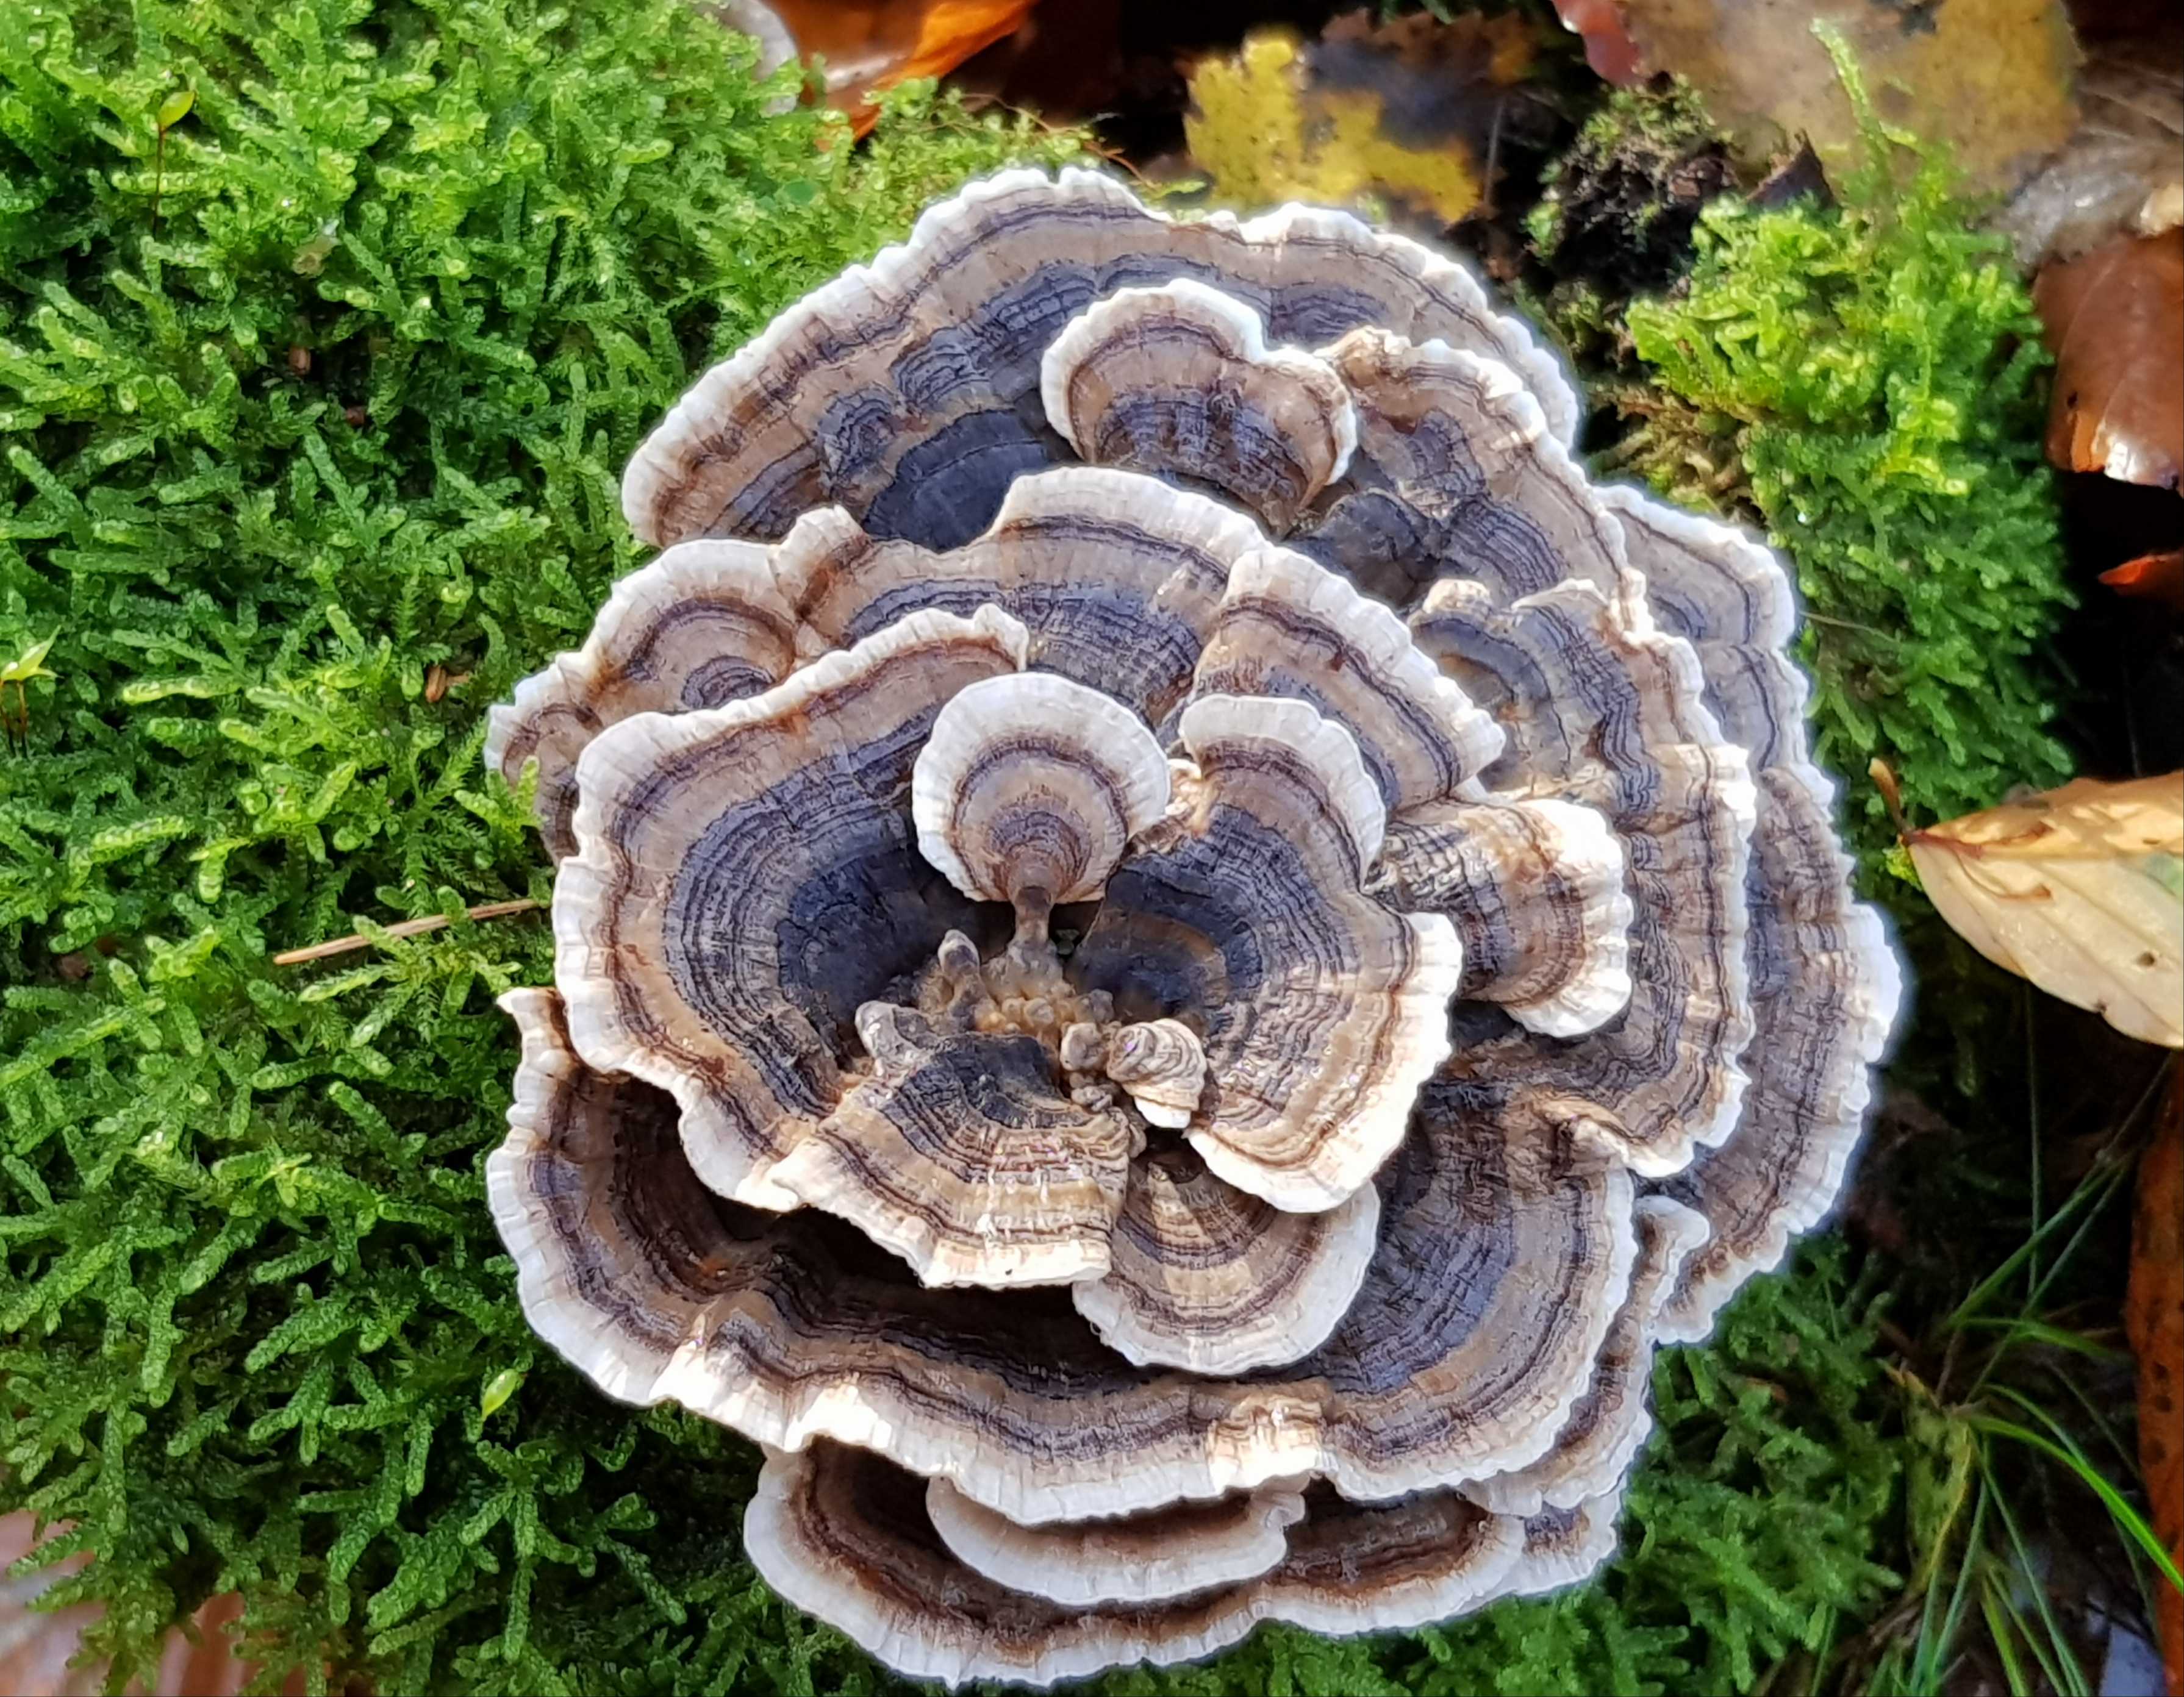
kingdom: Fungi
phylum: Basidiomycota
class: Agaricomycetes
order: Polyporales
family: Polyporaceae
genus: Trametes
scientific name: Trametes versicolor
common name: broget læderporesvamp
